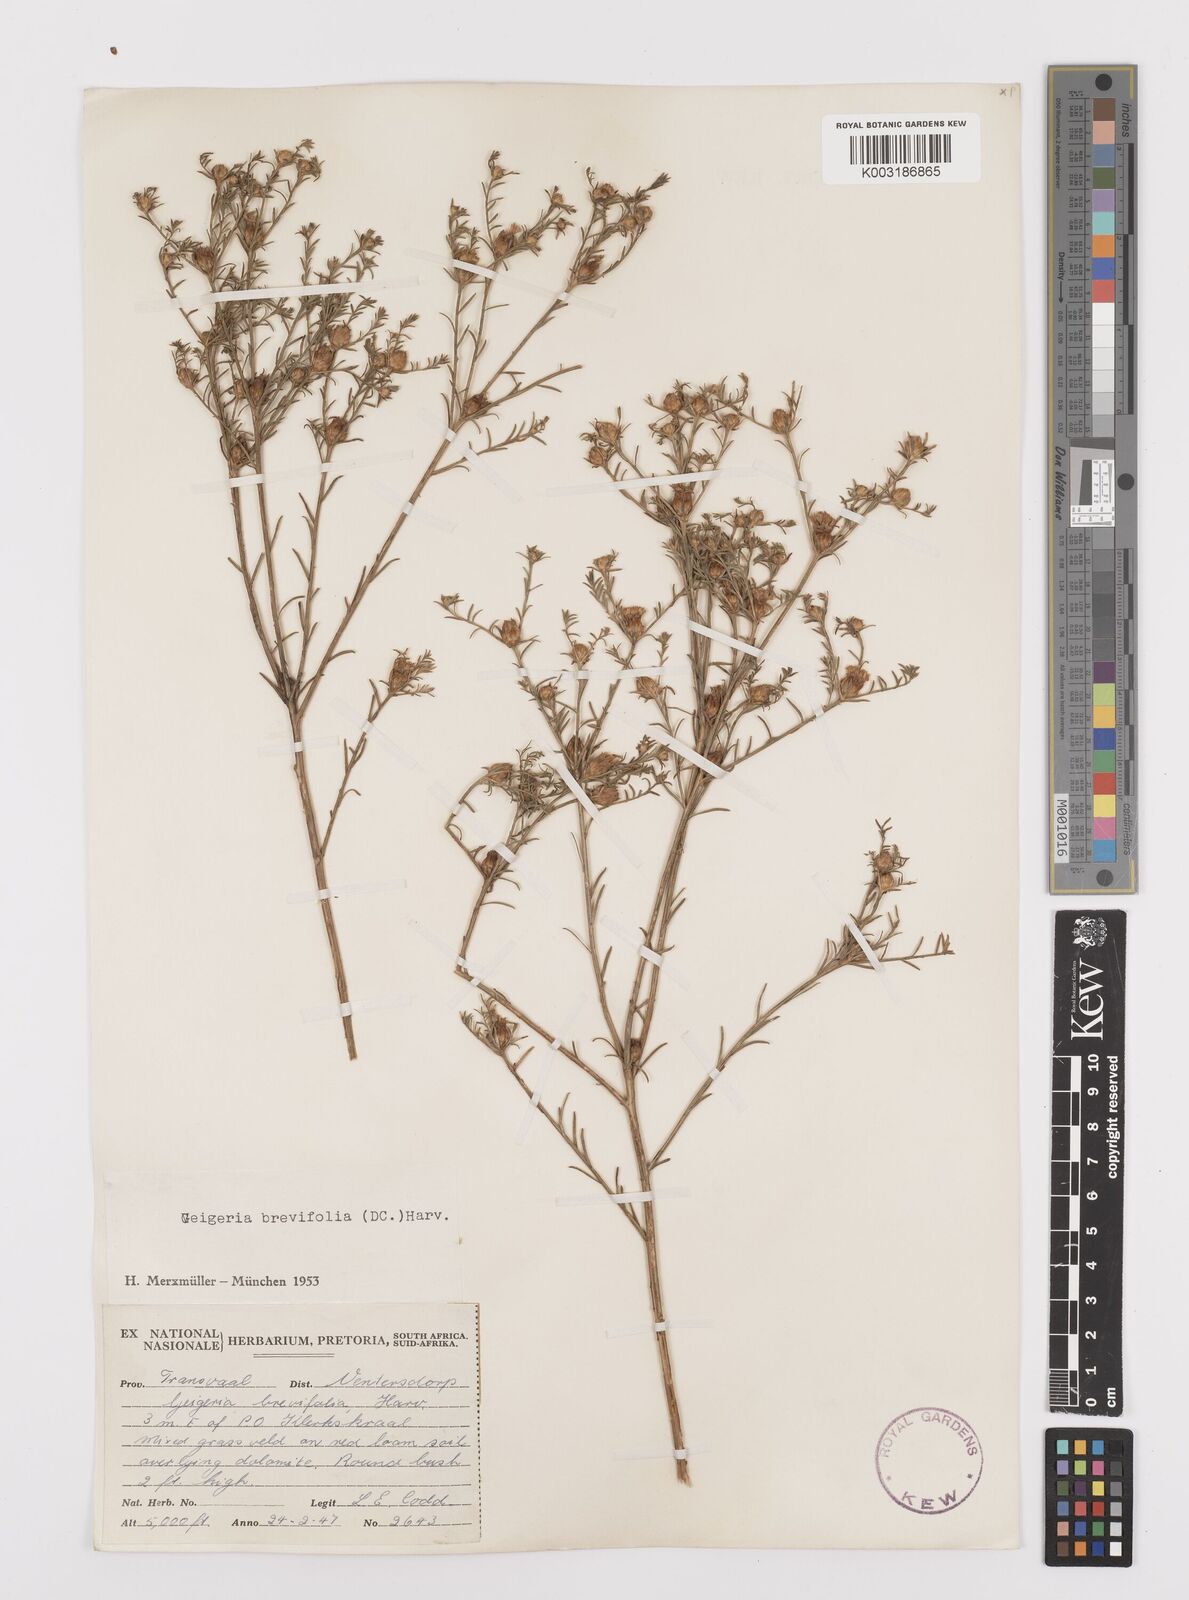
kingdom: Plantae
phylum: Tracheophyta
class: Magnoliopsida
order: Asterales
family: Asteraceae
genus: Geigeria
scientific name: Geigeria brevifolia
